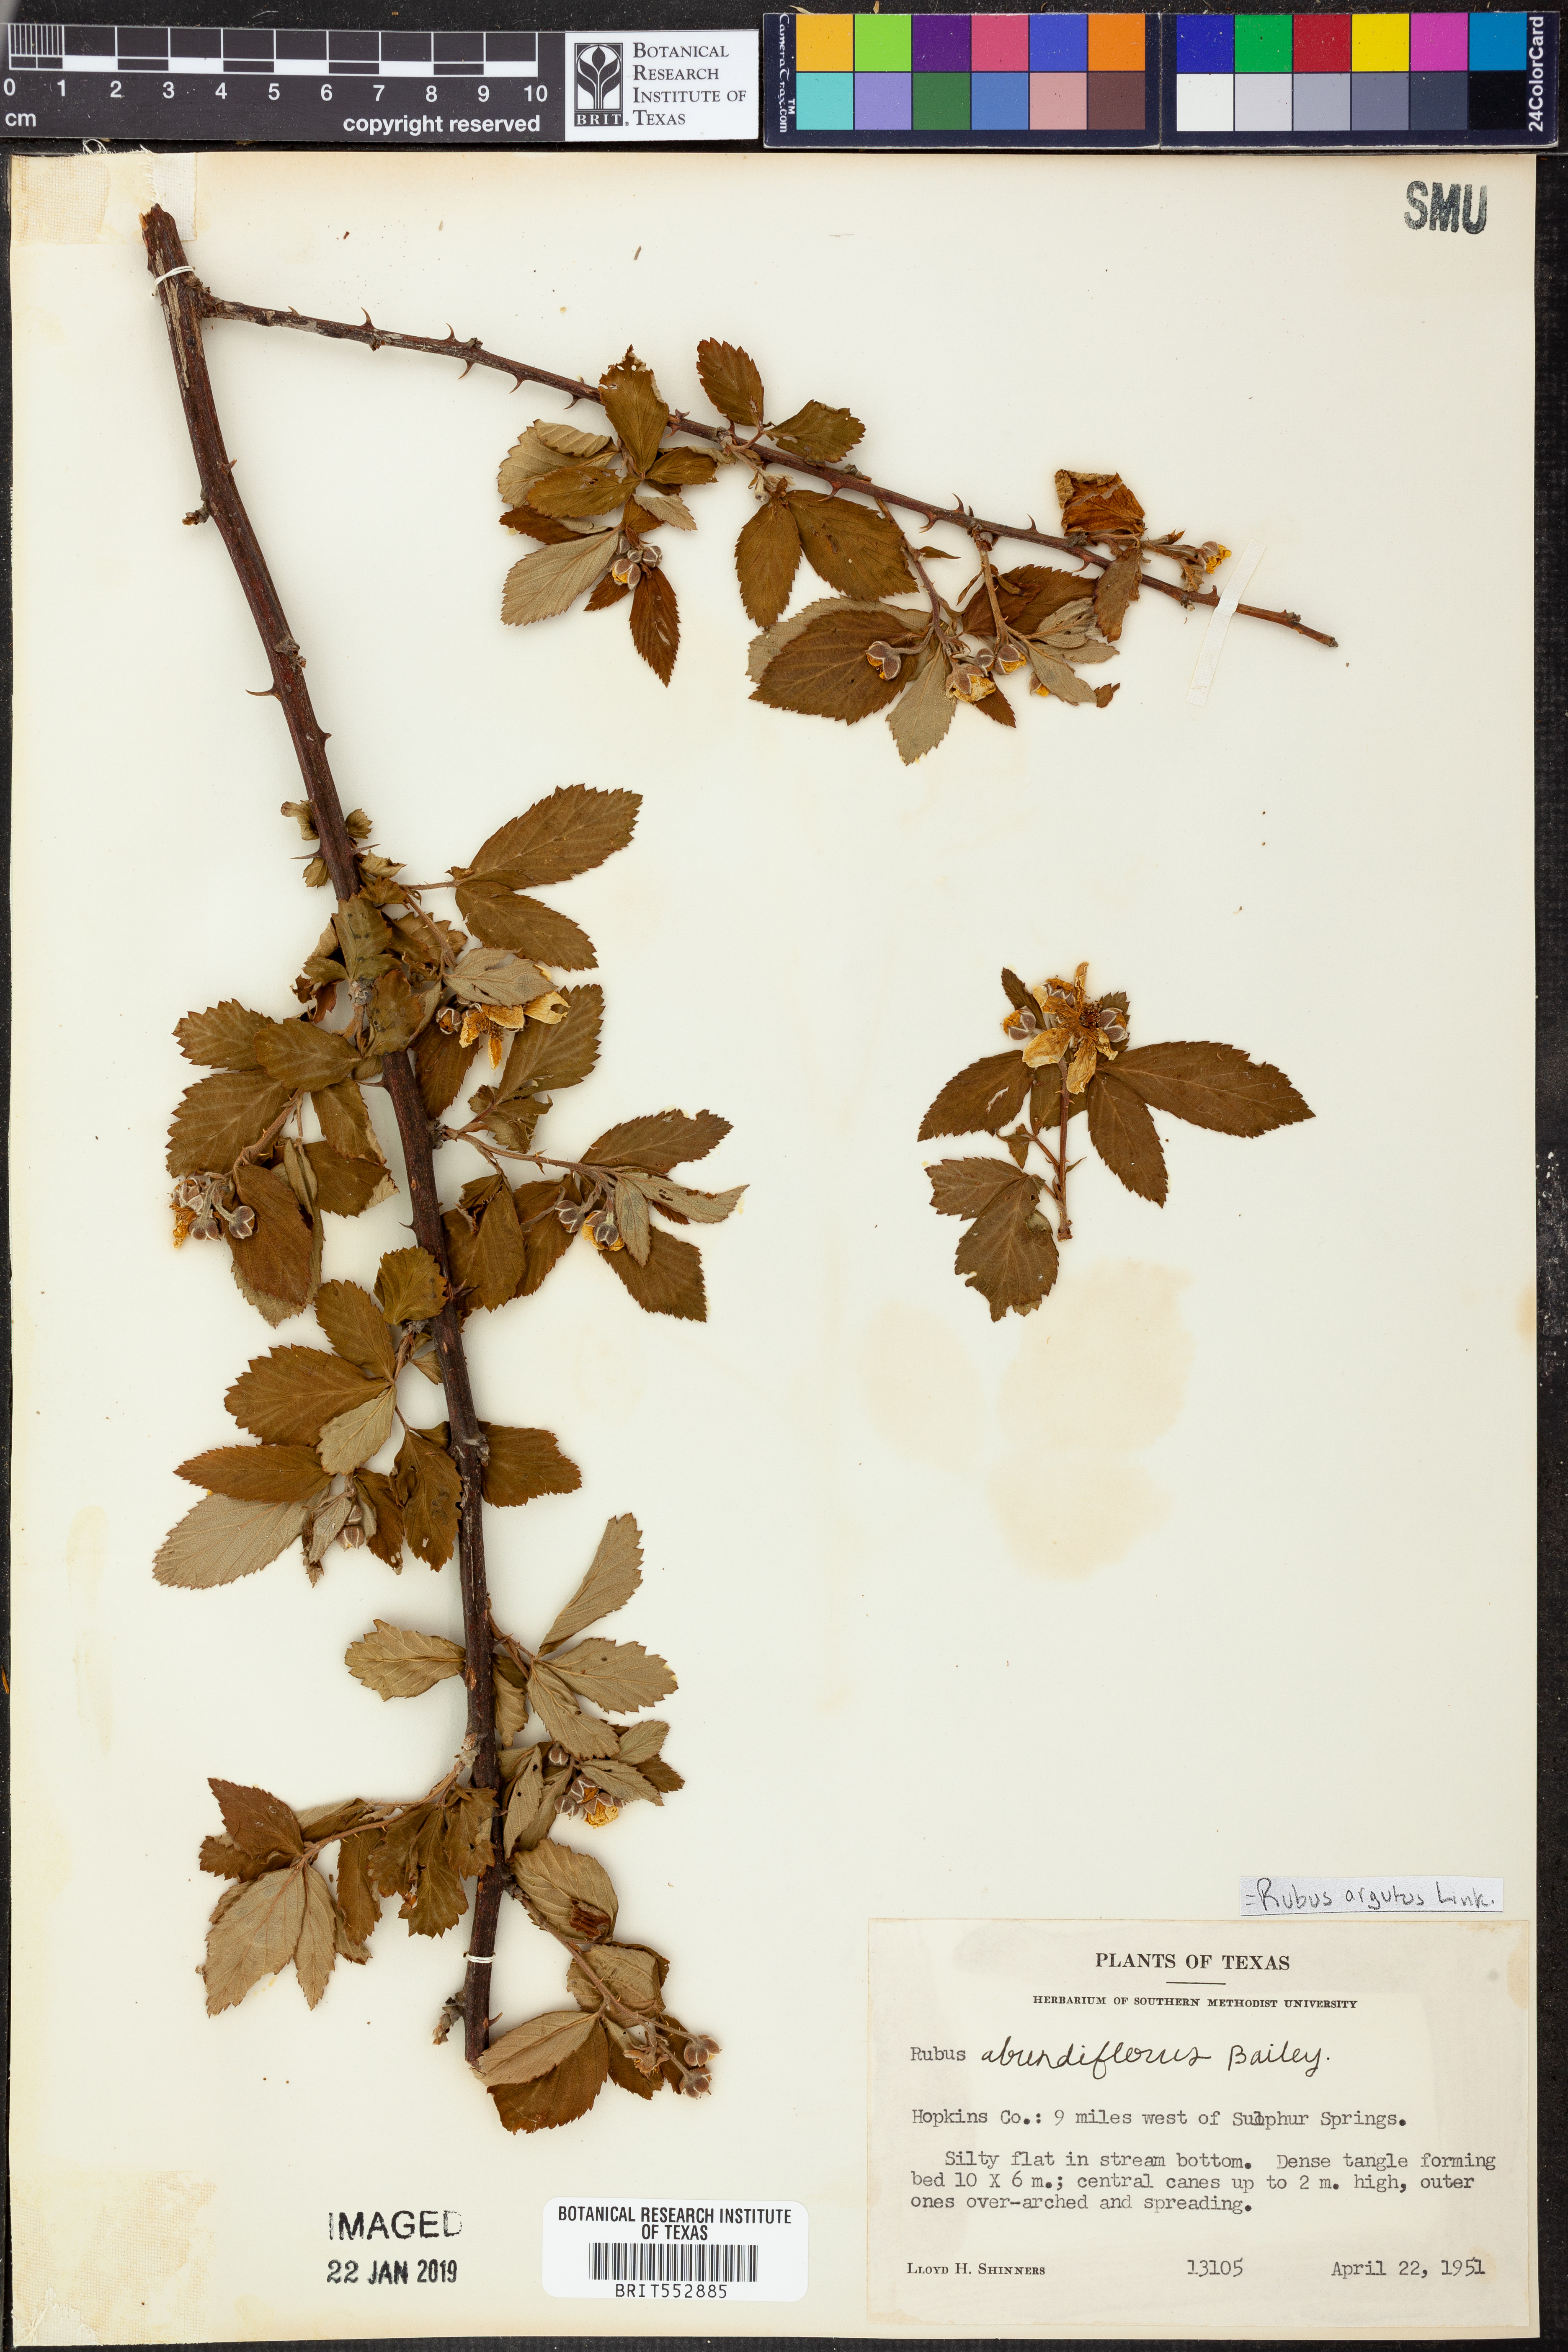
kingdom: Plantae
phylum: Tracheophyta
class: Magnoliopsida
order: Rosales
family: Rosaceae
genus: Rubus
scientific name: Rubus argutus
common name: Sawtooth blackberry
